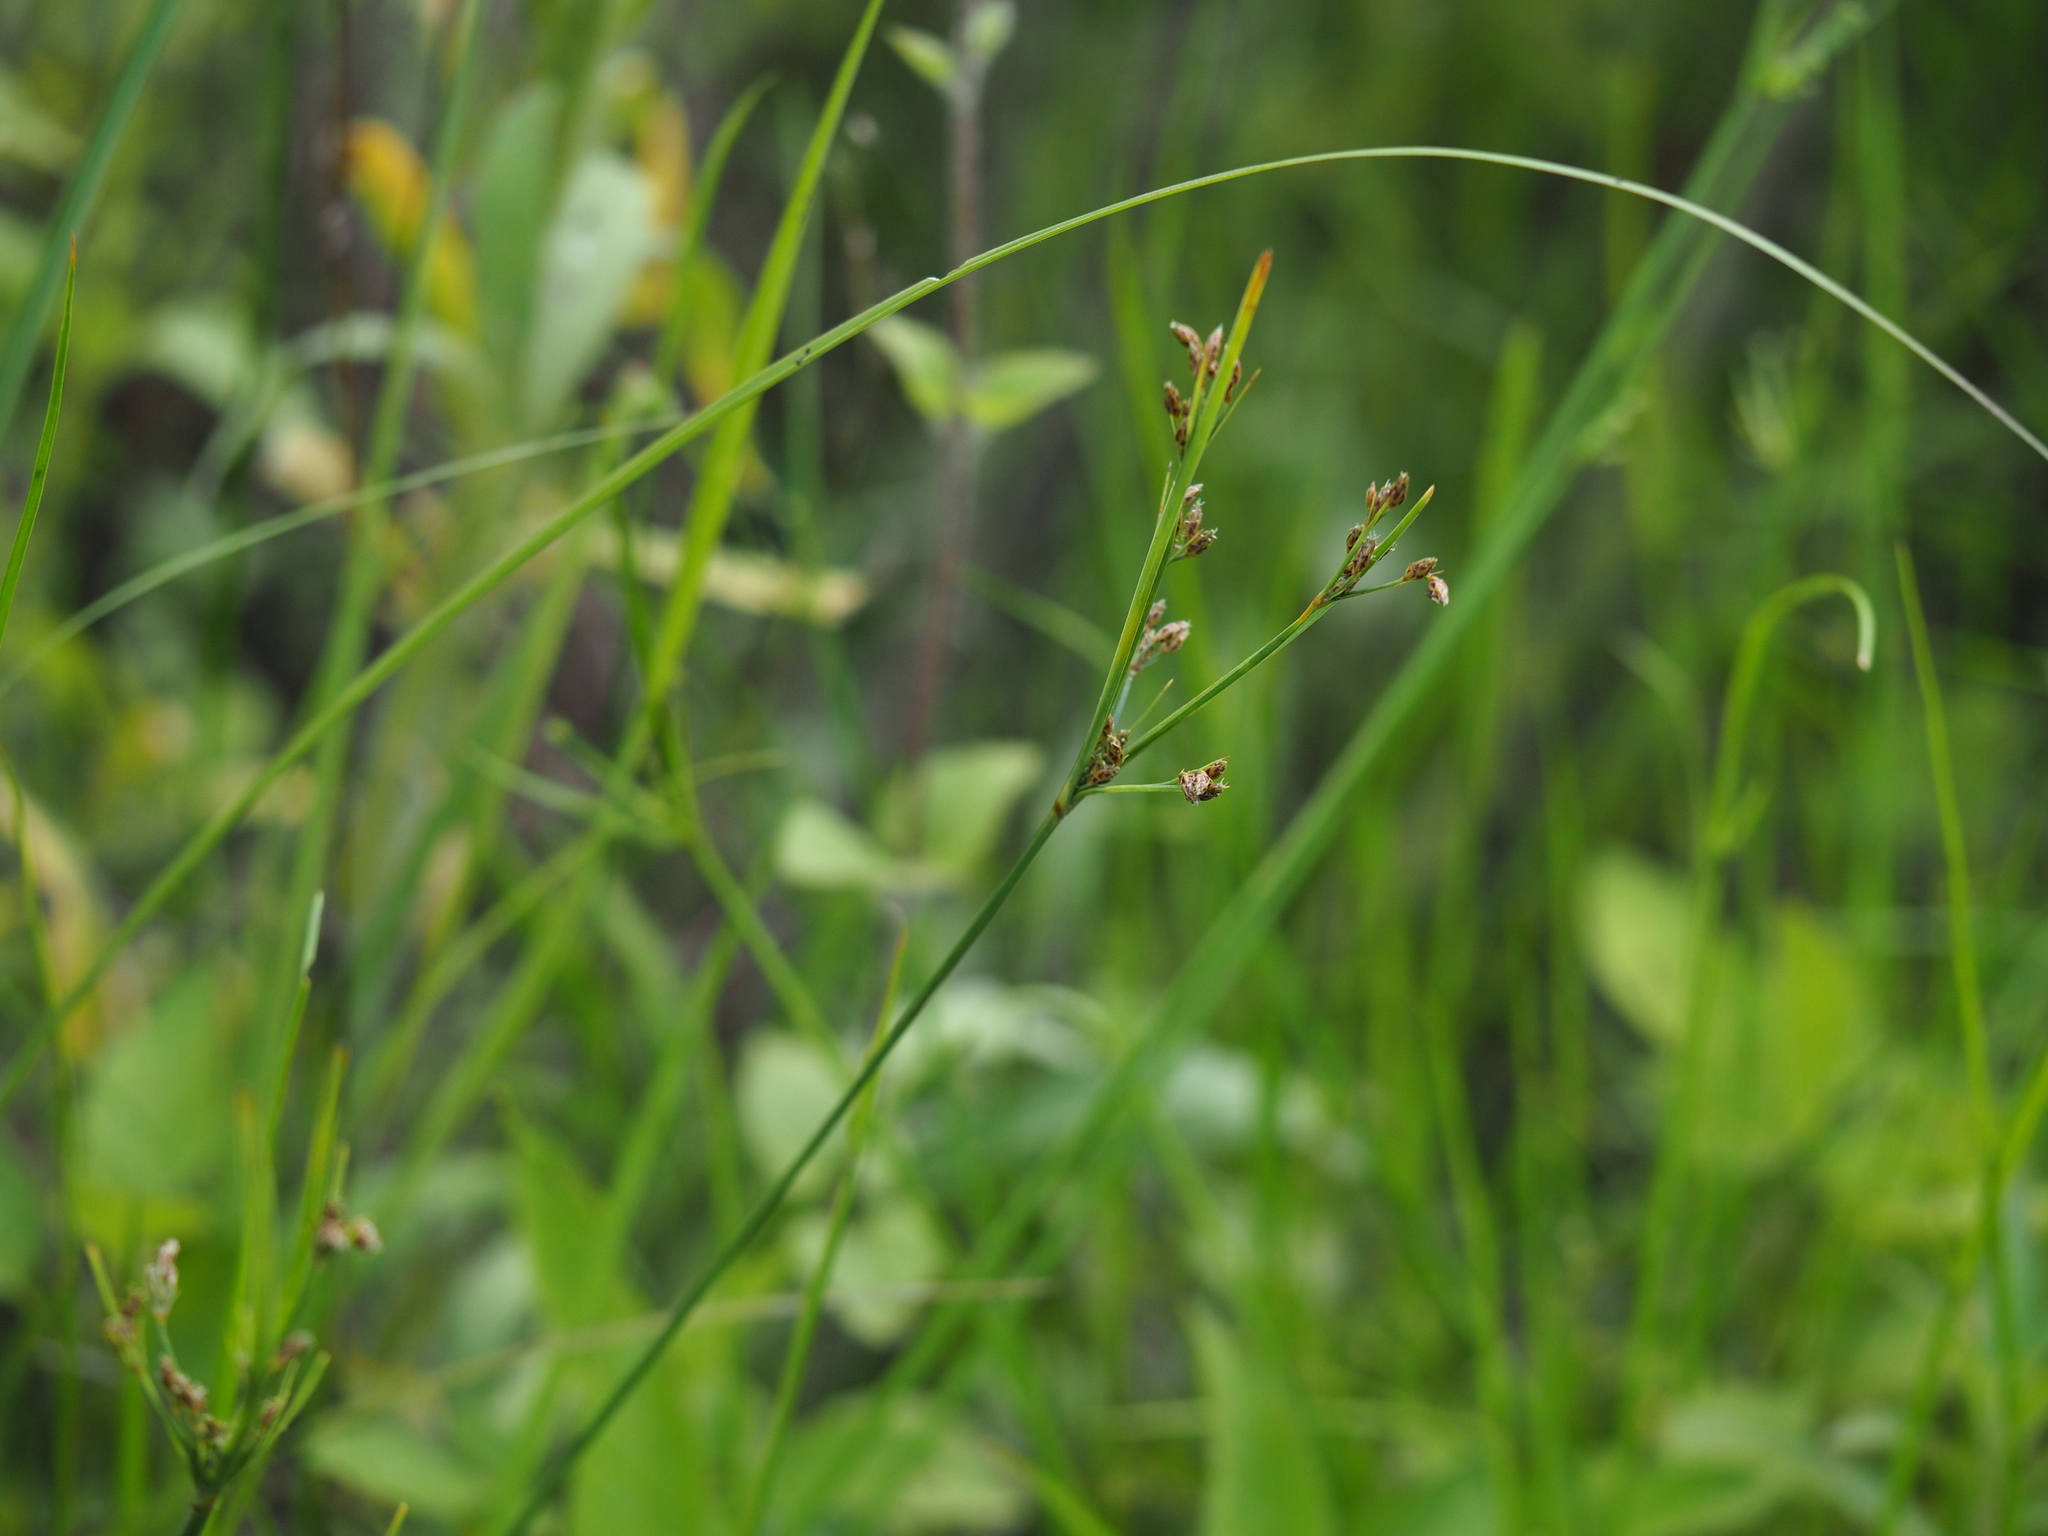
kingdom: Plantae
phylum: Tracheophyta
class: Liliopsida
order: Poales
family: Cyperaceae
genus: Fimbristylis
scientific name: Fimbristylis dichotoma
